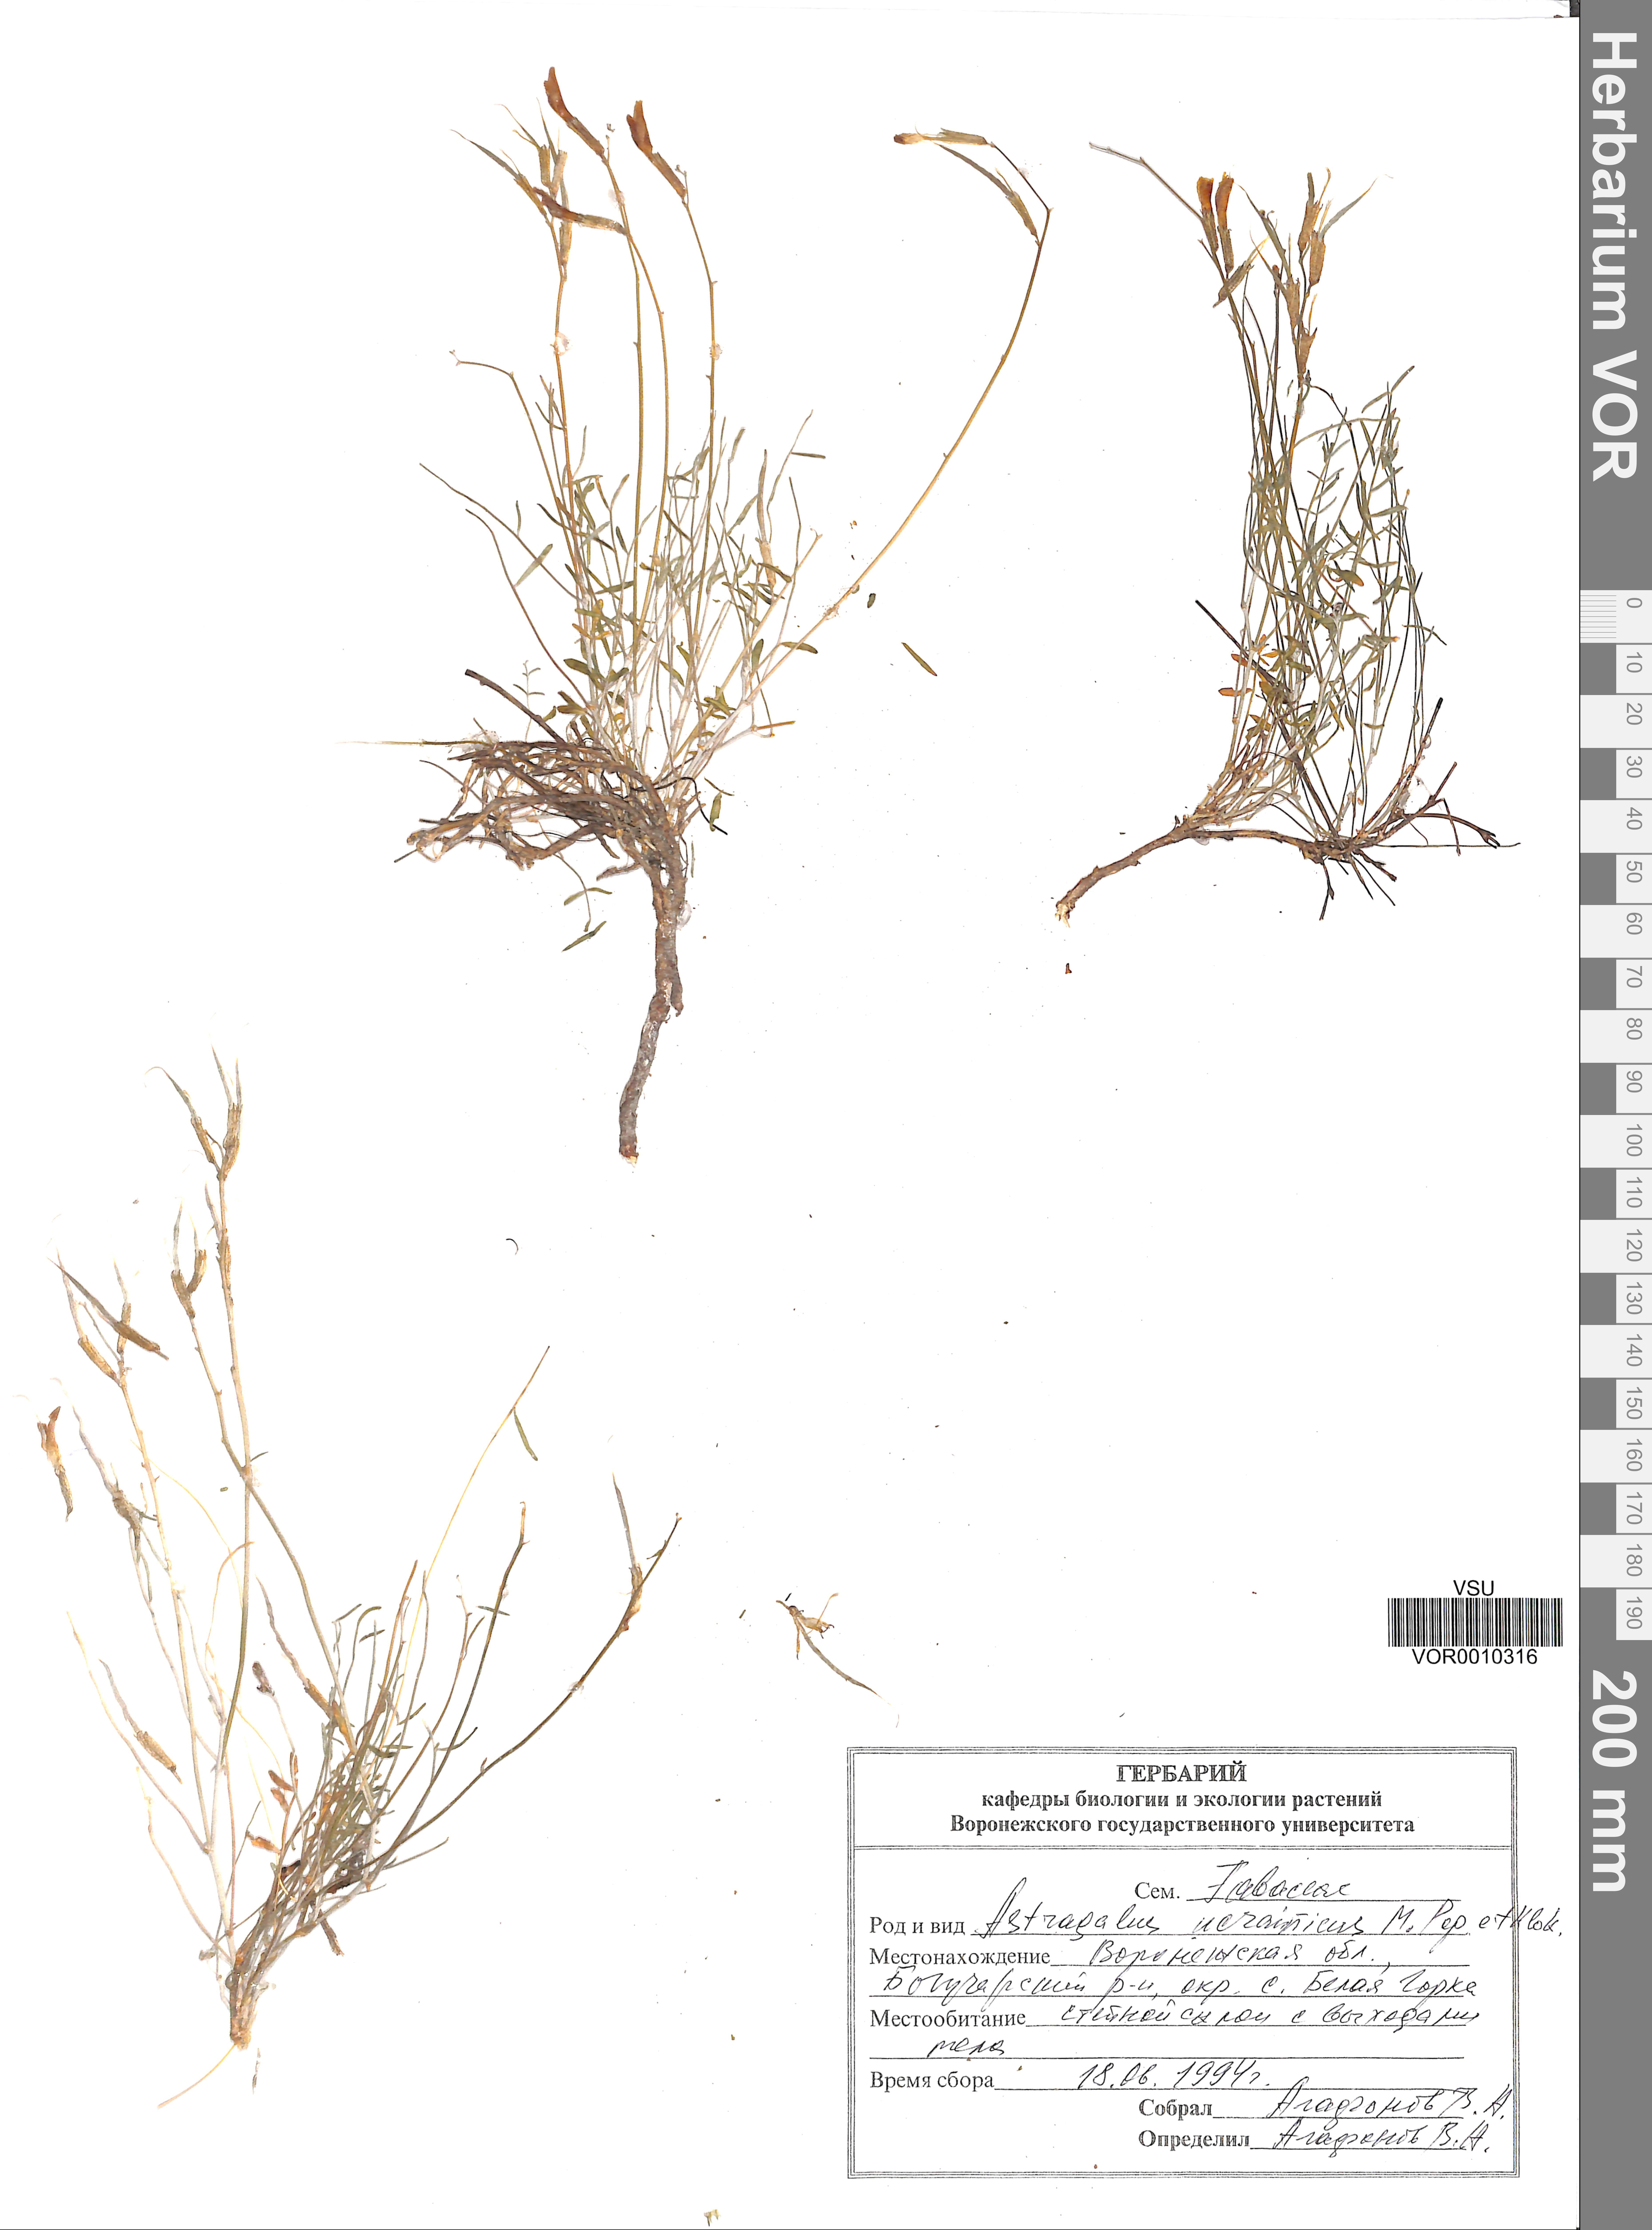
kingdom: Plantae
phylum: Tracheophyta
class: Magnoliopsida
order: Fabales
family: Fabaceae
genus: Astragalus
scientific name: Astragalus ucrainicus
